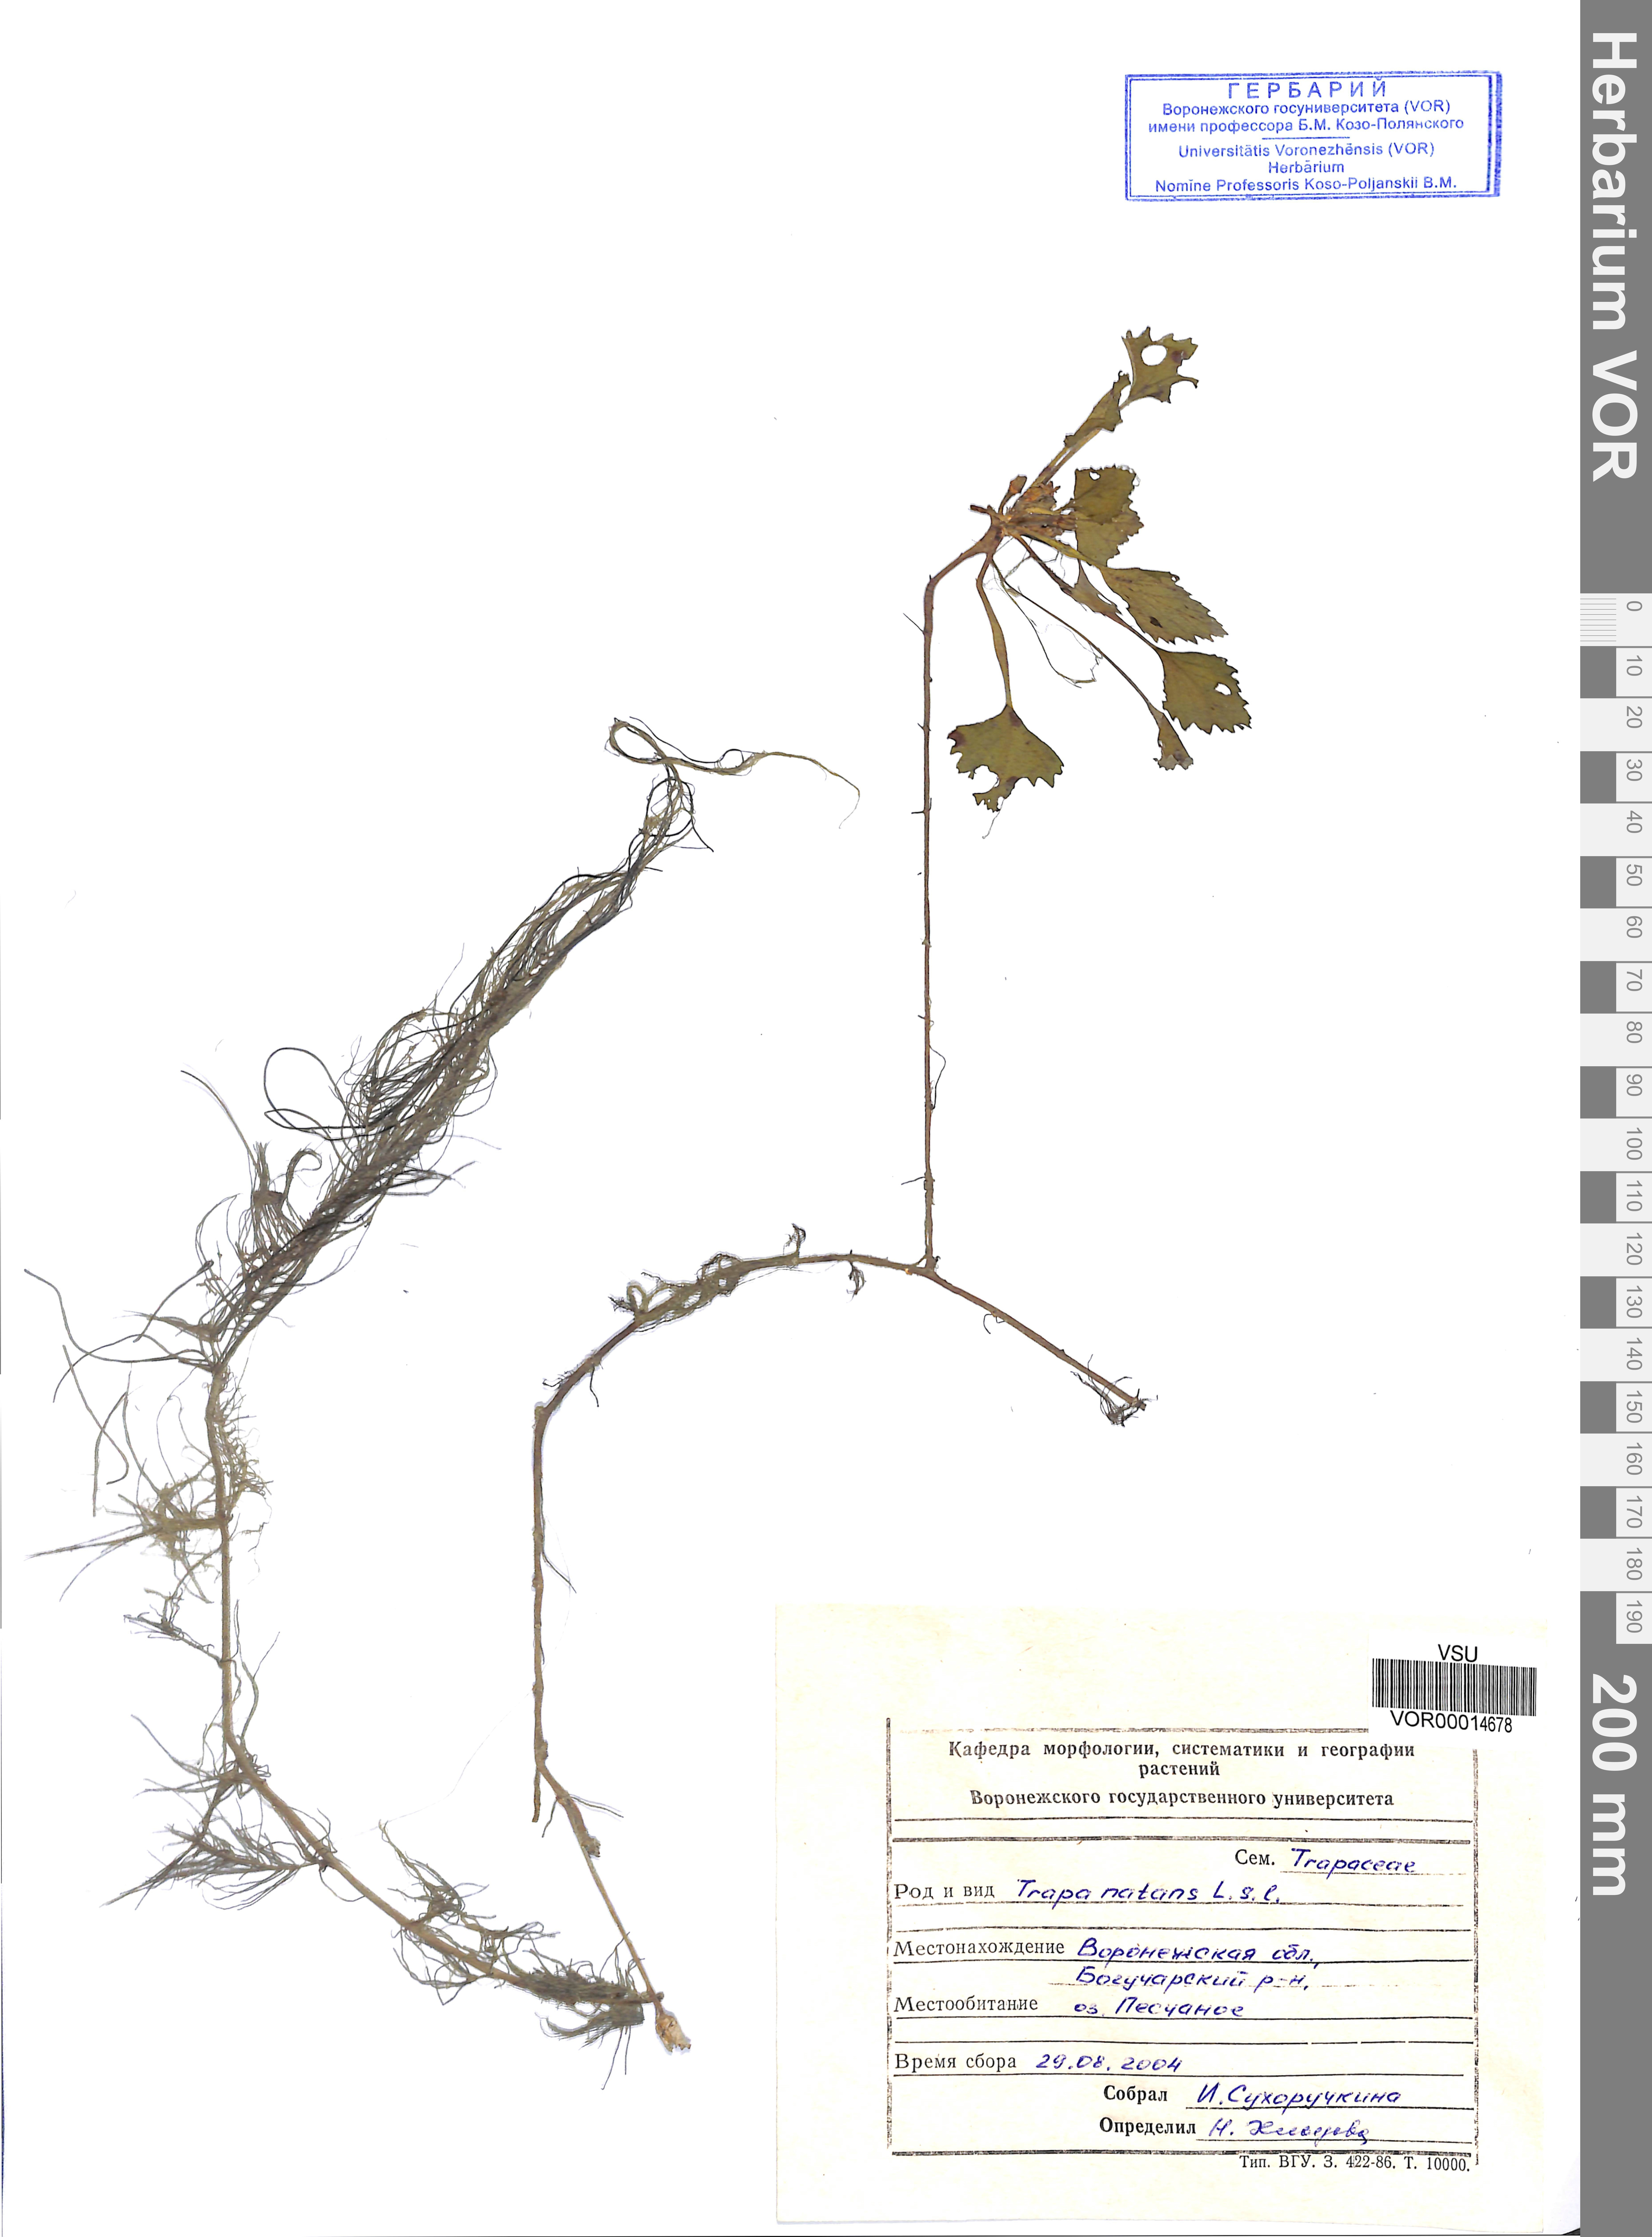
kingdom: Plantae
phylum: Tracheophyta
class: Magnoliopsida
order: Myrtales
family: Lythraceae
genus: Trapa
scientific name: Trapa natans
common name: Water chestnut
